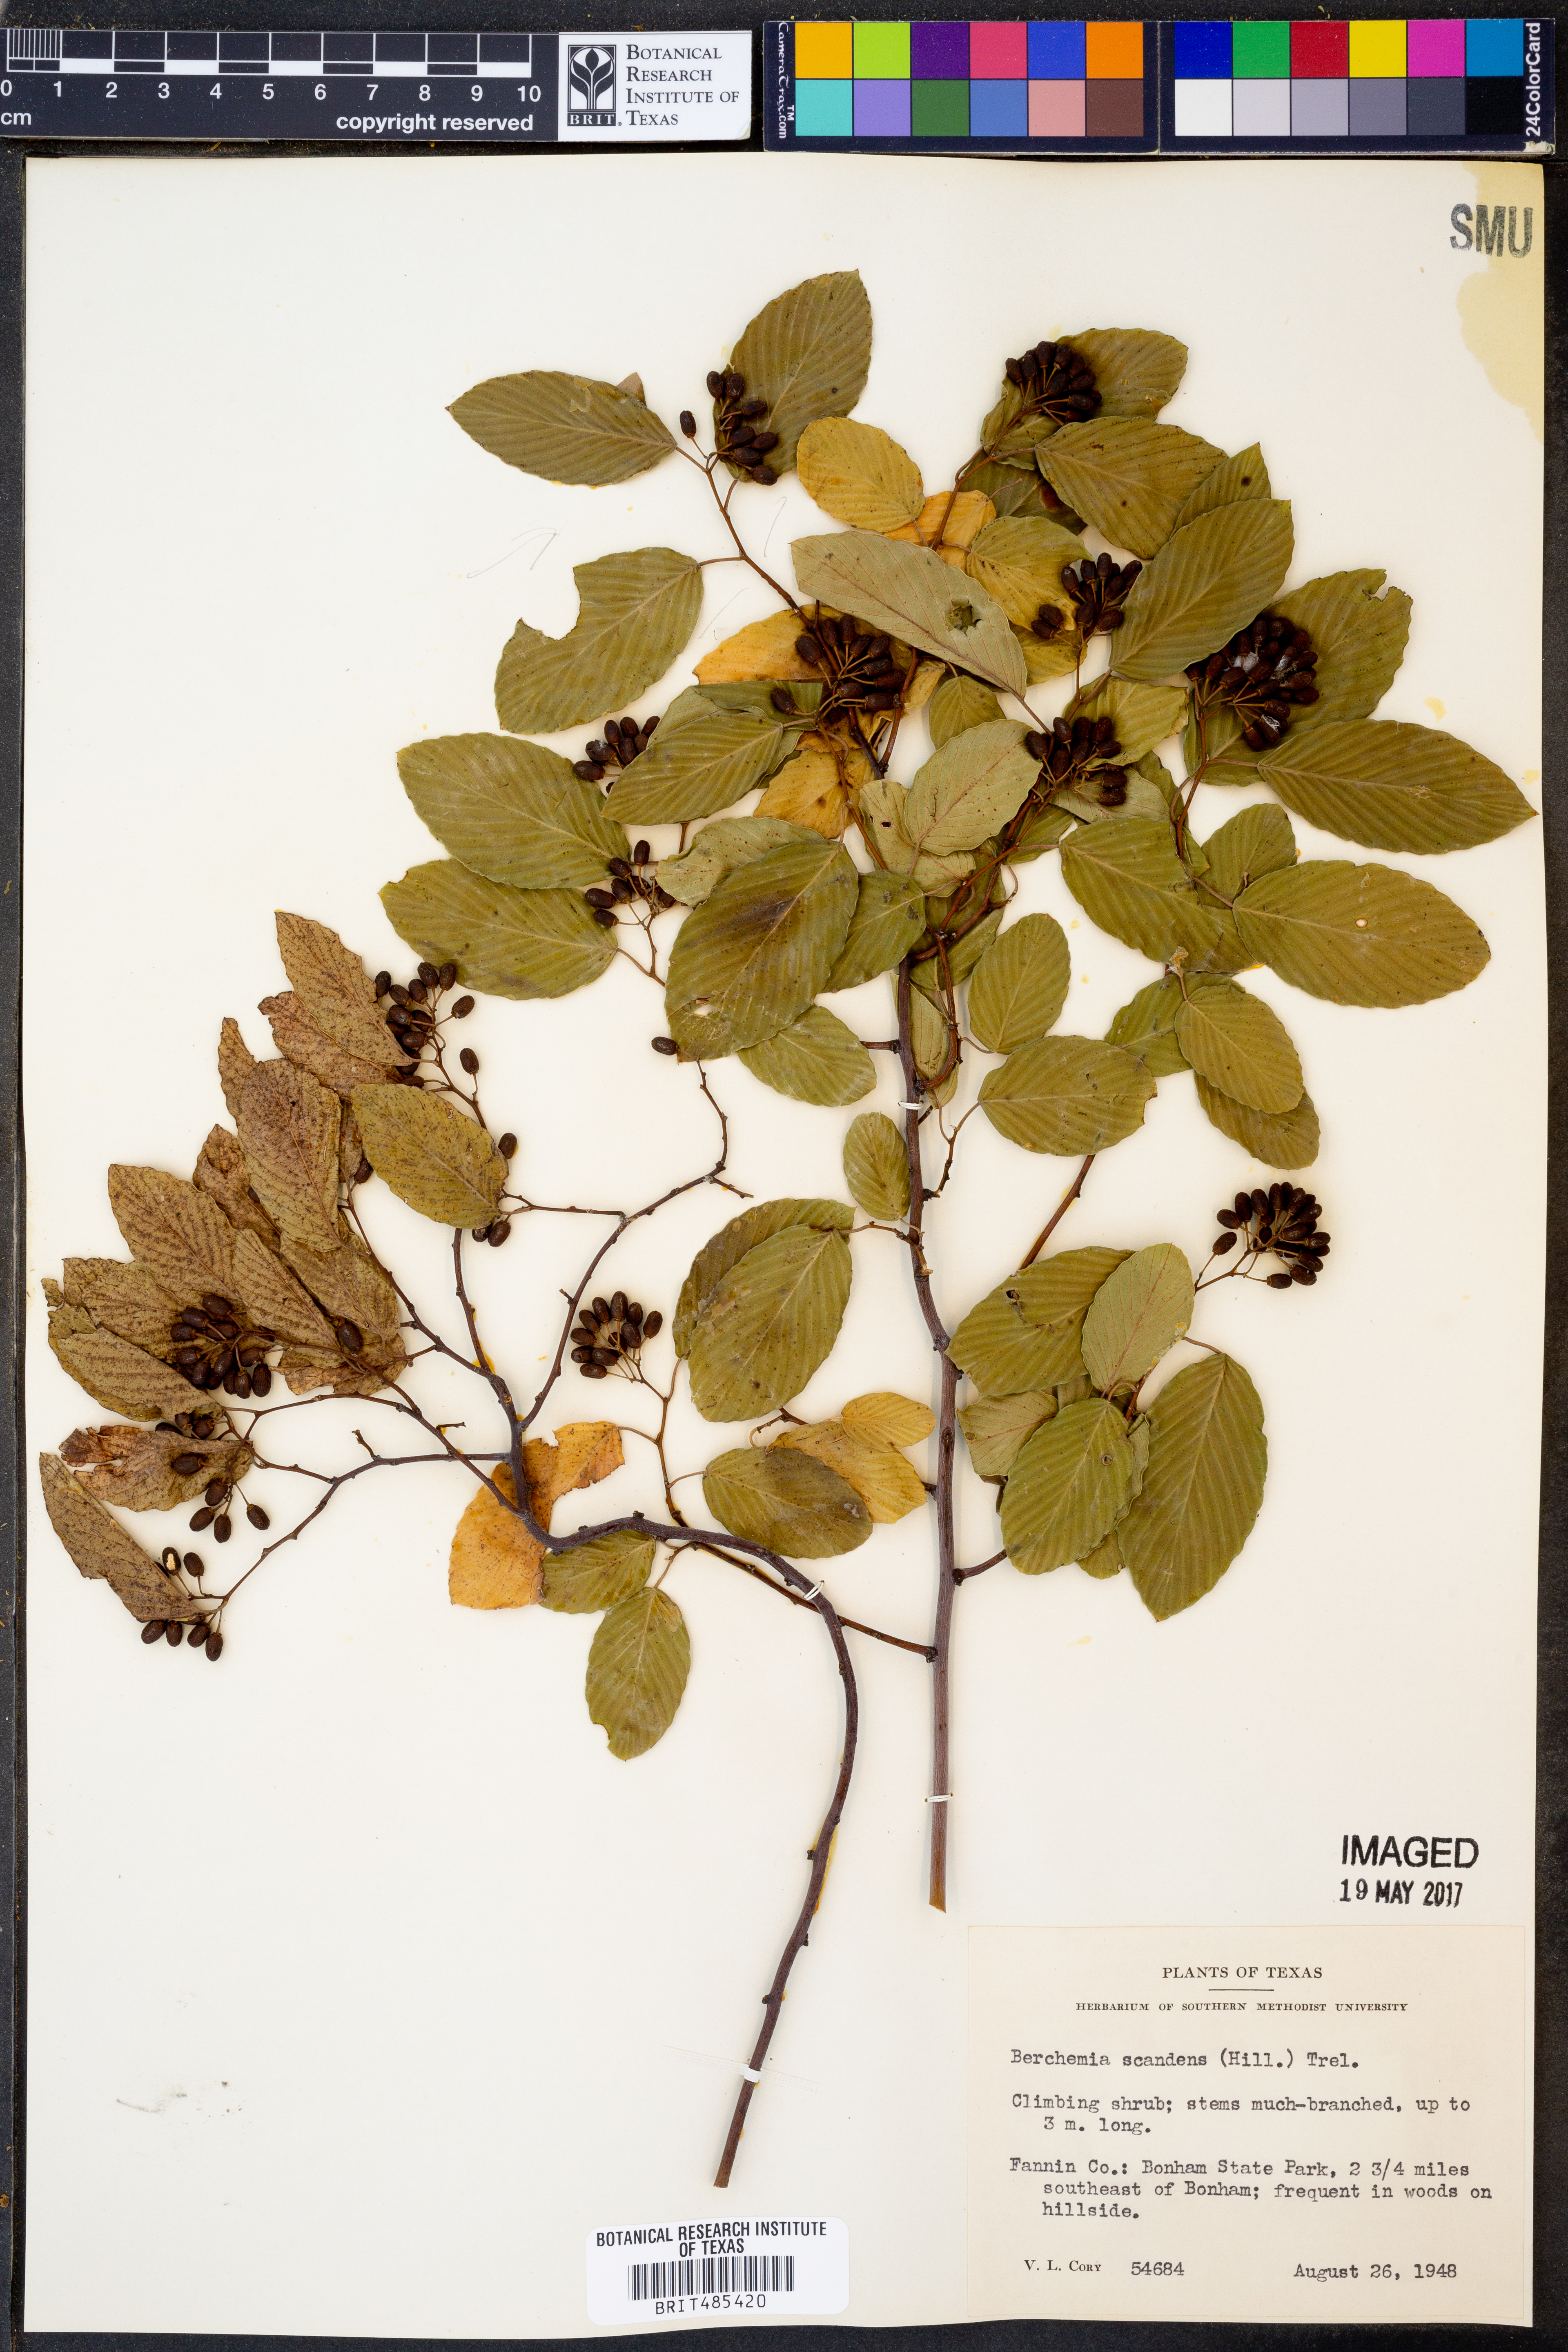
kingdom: Plantae
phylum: Tracheophyta
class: Magnoliopsida
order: Rosales
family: Rhamnaceae
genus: Berchemia
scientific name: Berchemia scandens
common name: Supplejack
